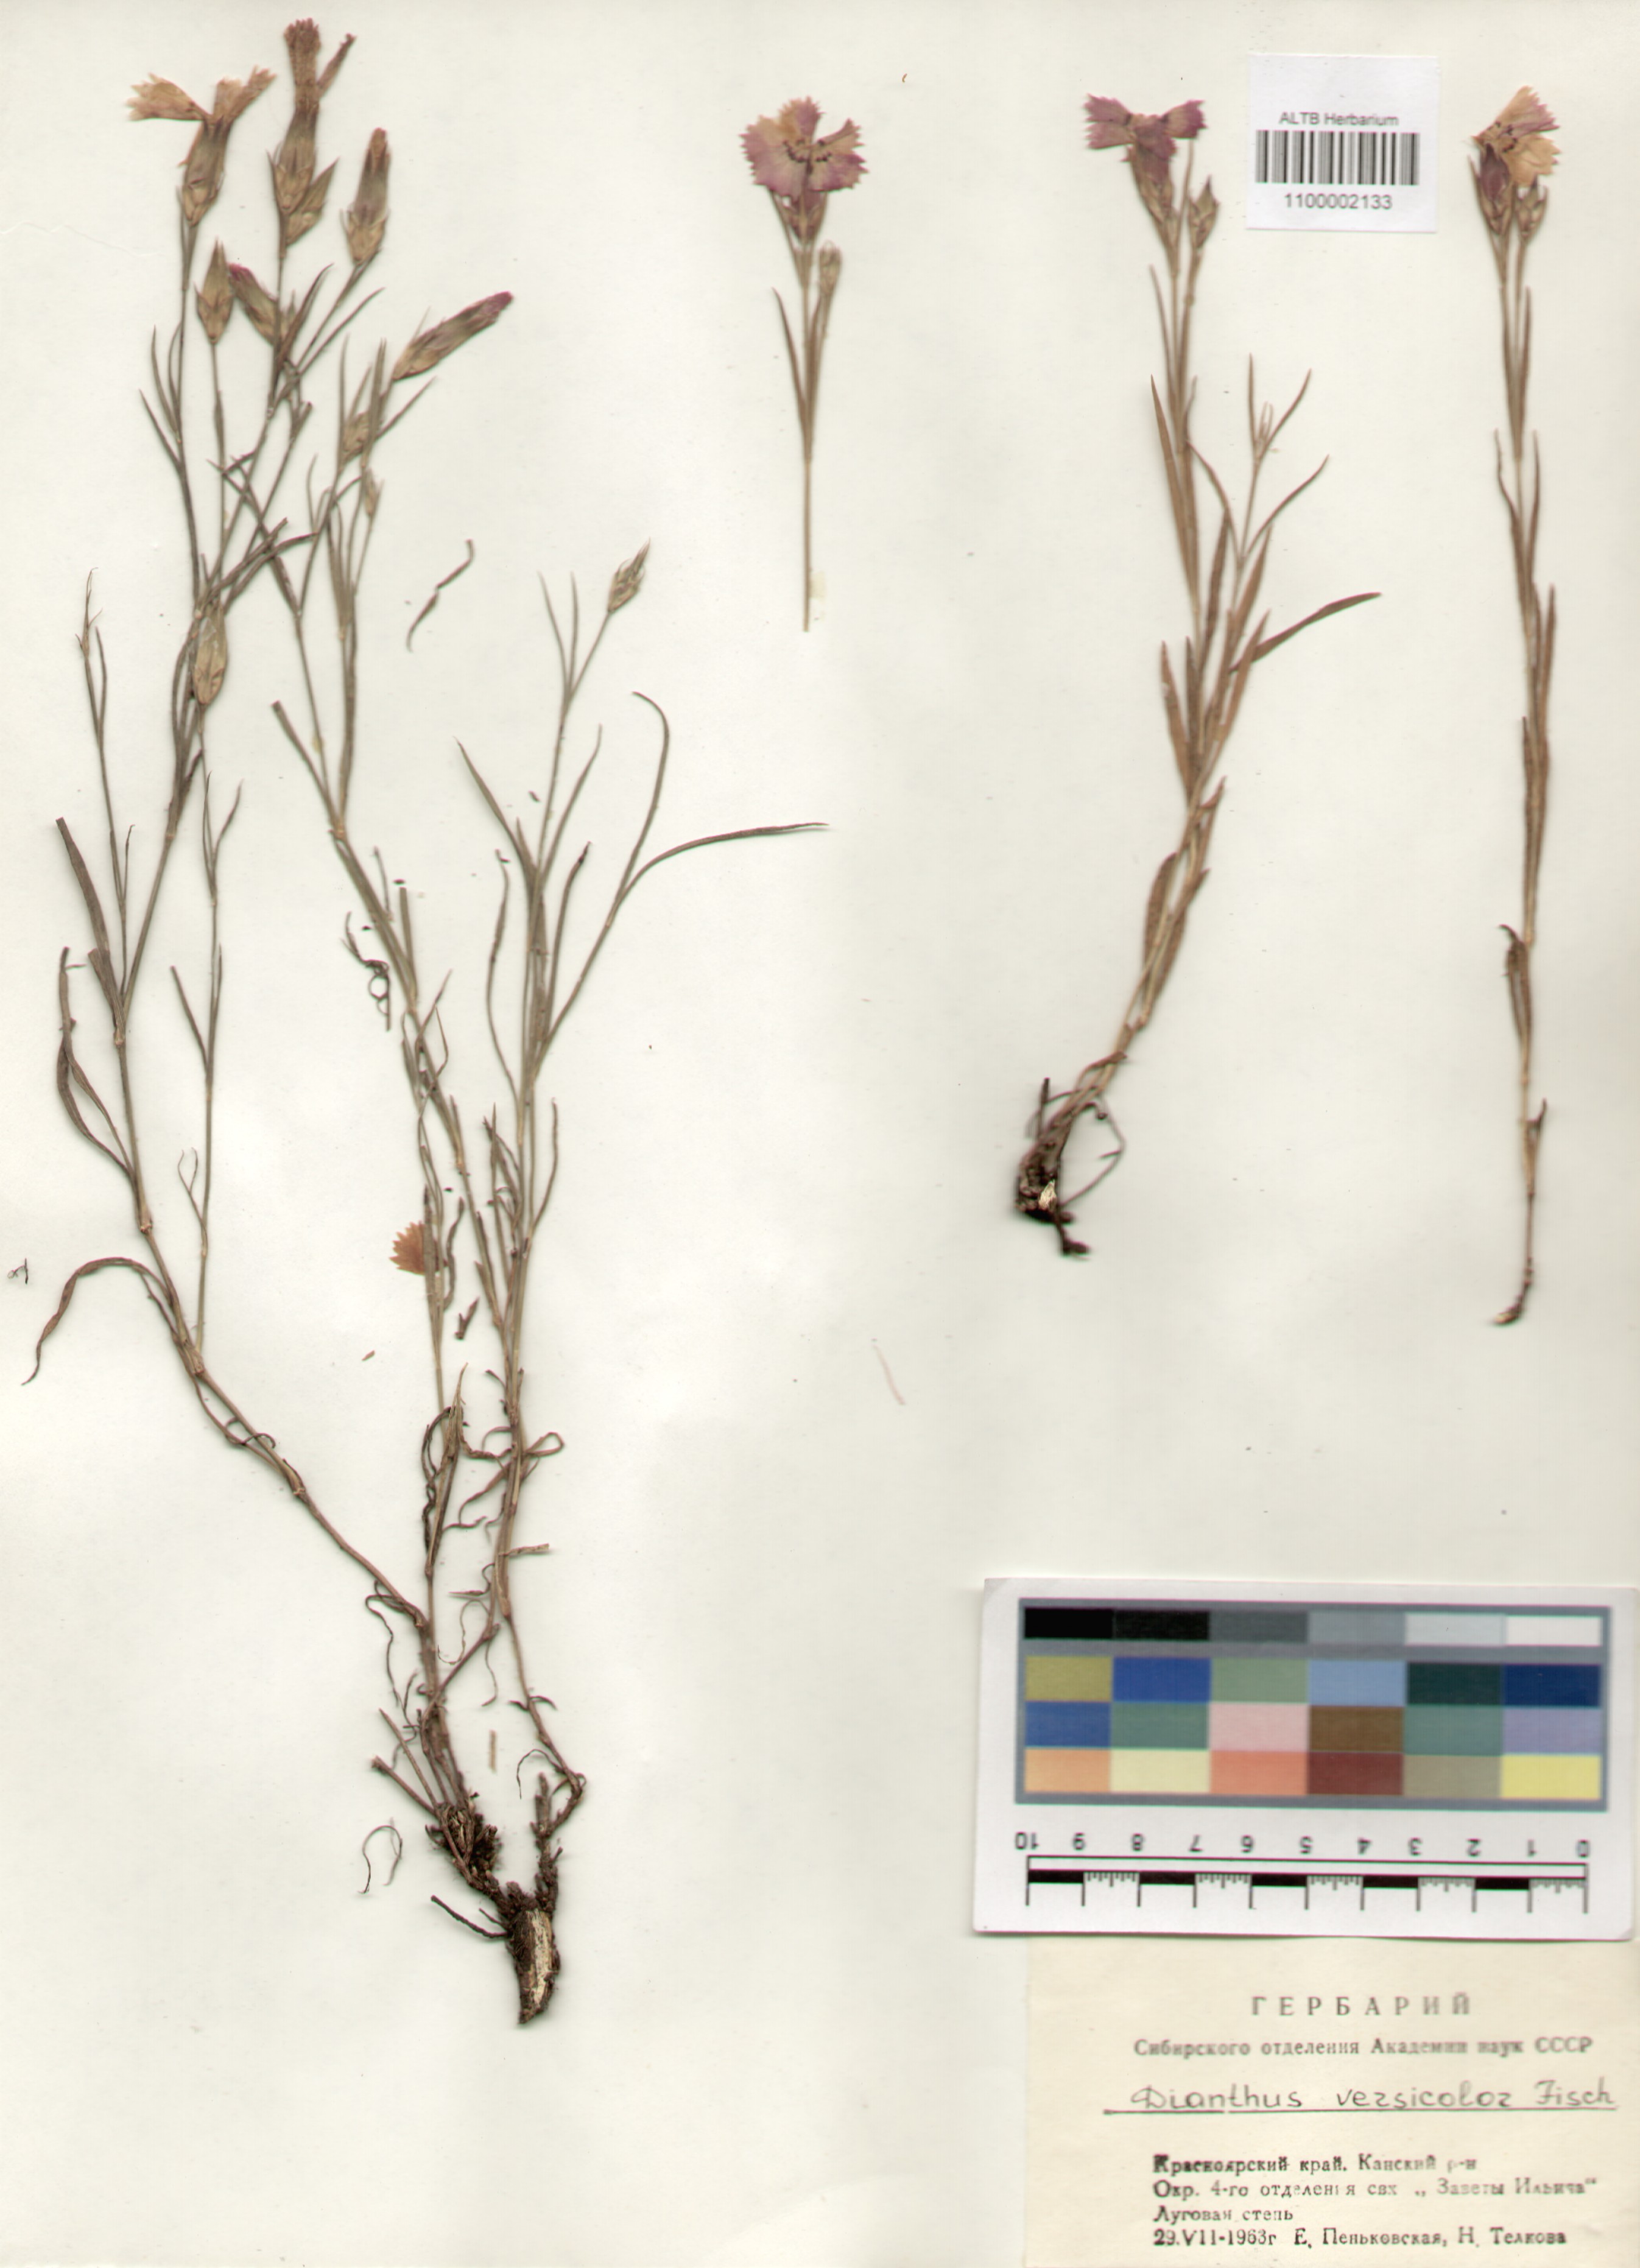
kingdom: Plantae
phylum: Tracheophyta
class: Magnoliopsida
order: Caryophyllales
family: Caryophyllaceae
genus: Dianthus
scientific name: Dianthus chinensis
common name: Rainbow pink
